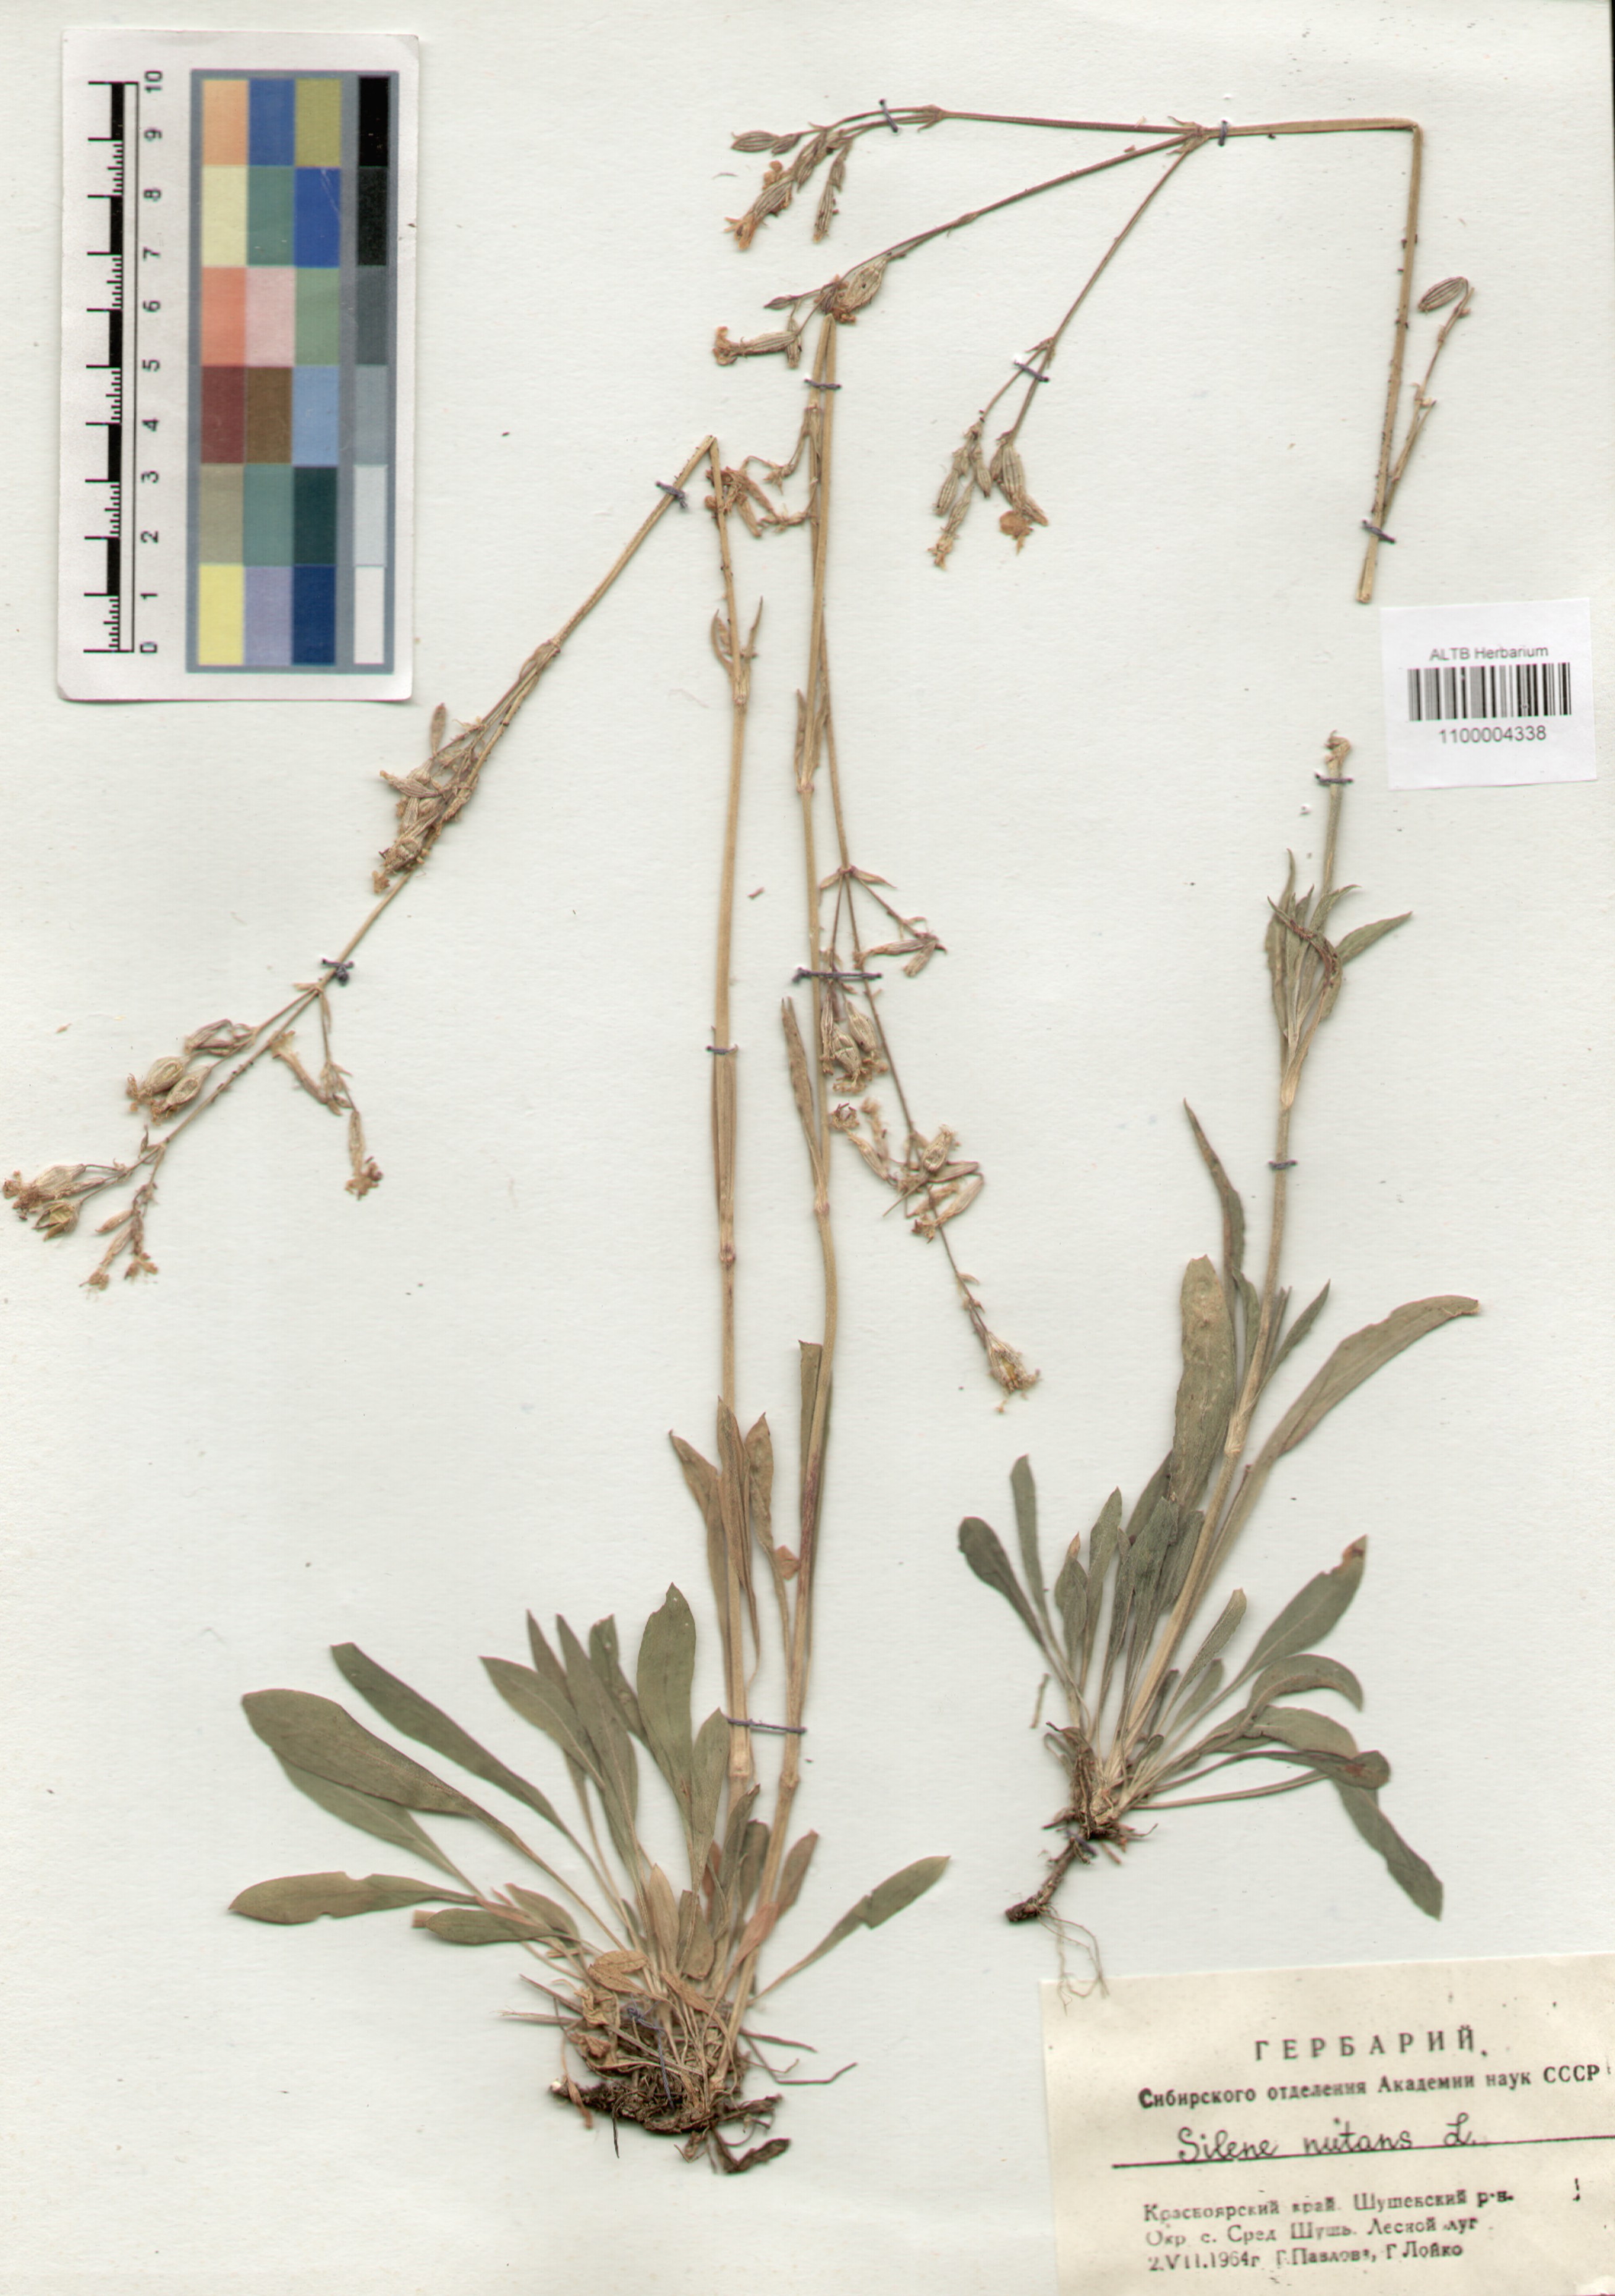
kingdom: Plantae
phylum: Tracheophyta
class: Magnoliopsida
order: Caryophyllales
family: Caryophyllaceae
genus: Silene
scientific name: Silene nutans
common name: Nottingham catchfly
